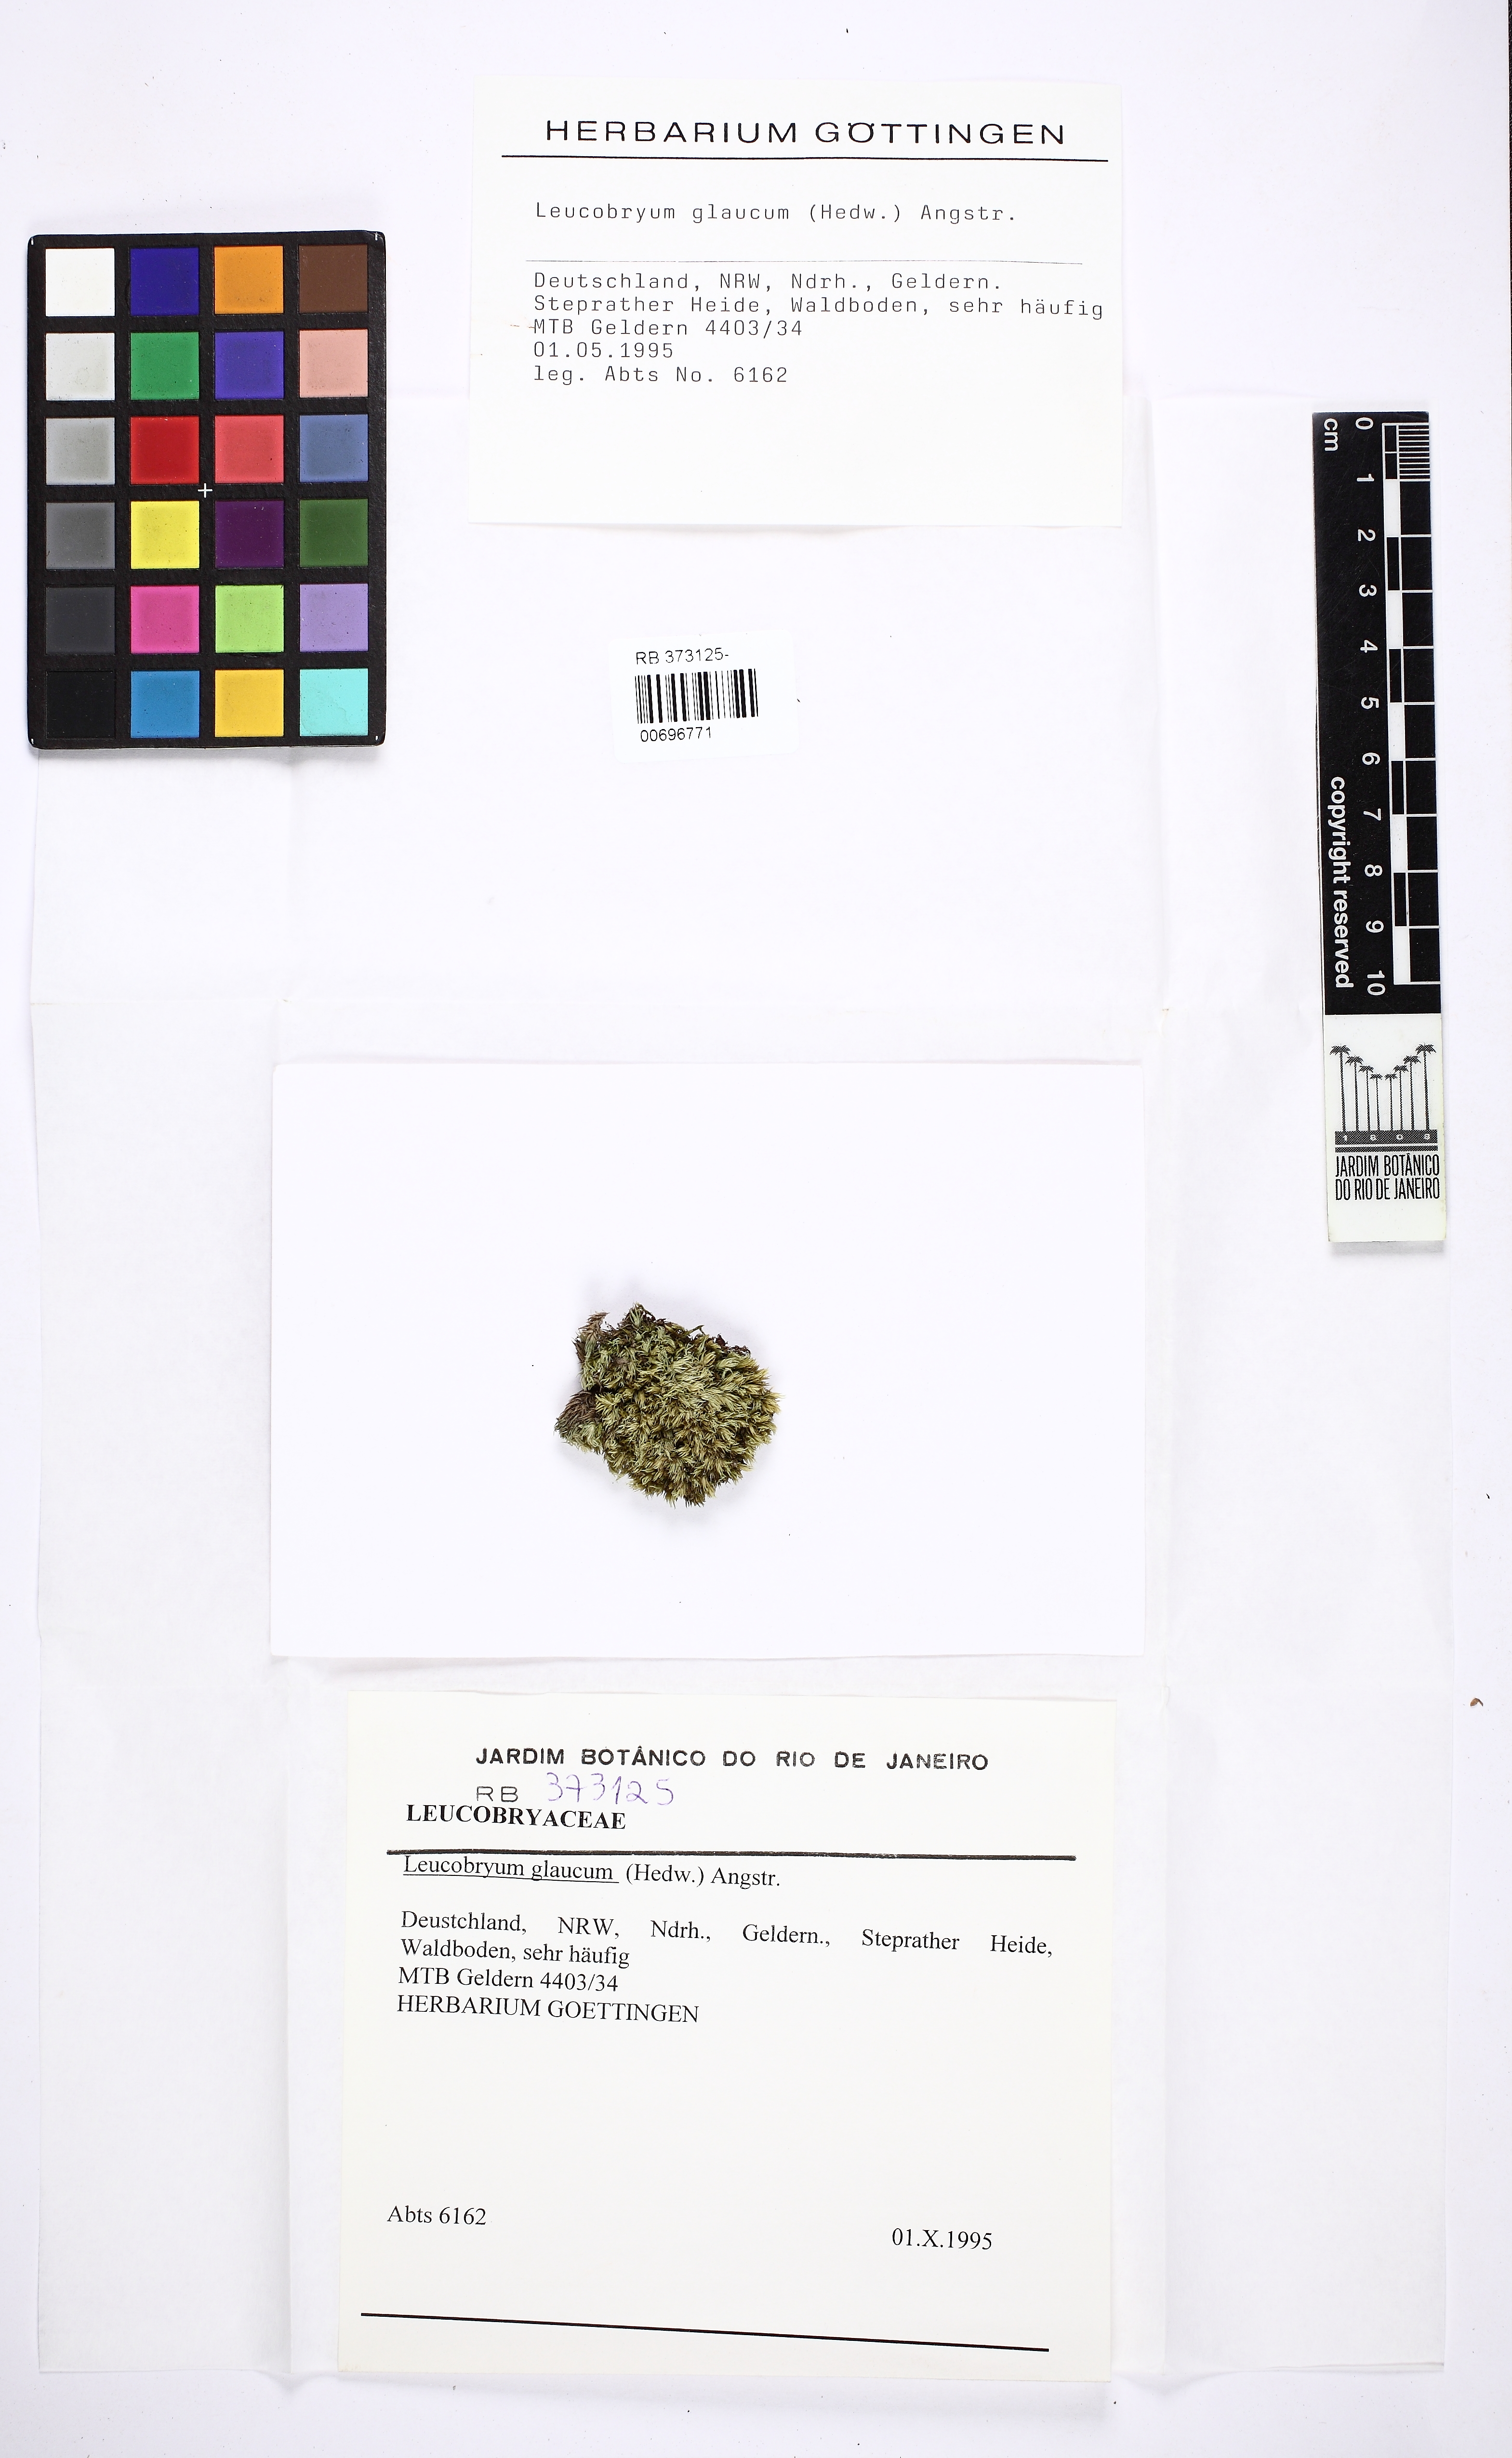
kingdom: Plantae
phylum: Bryophyta
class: Bryopsida
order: Dicranales
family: Leucobryaceae
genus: Leucobryum
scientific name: Leucobryum glaucum
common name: Large white-moss
